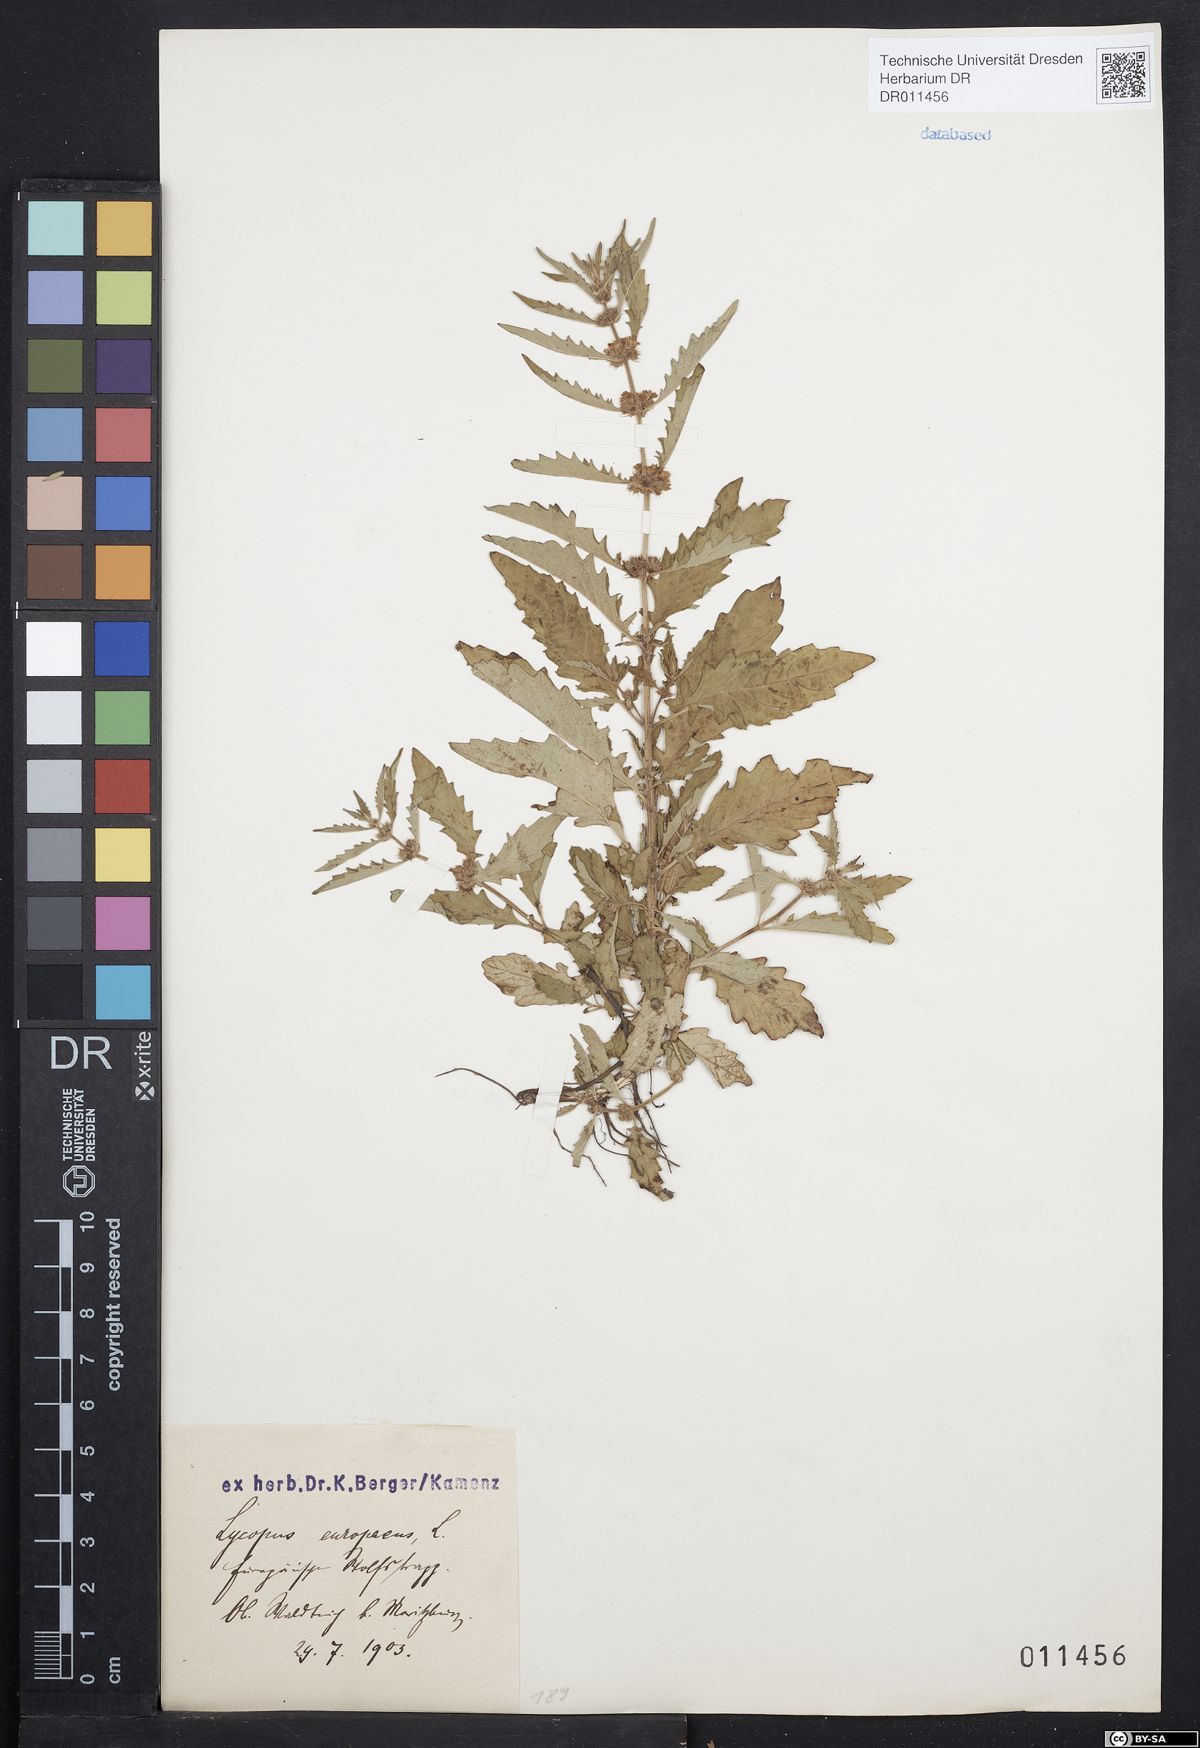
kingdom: Plantae
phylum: Tracheophyta
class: Magnoliopsida
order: Lamiales
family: Lamiaceae
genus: Lycopus
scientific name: Lycopus europaeus
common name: European bugleweed
